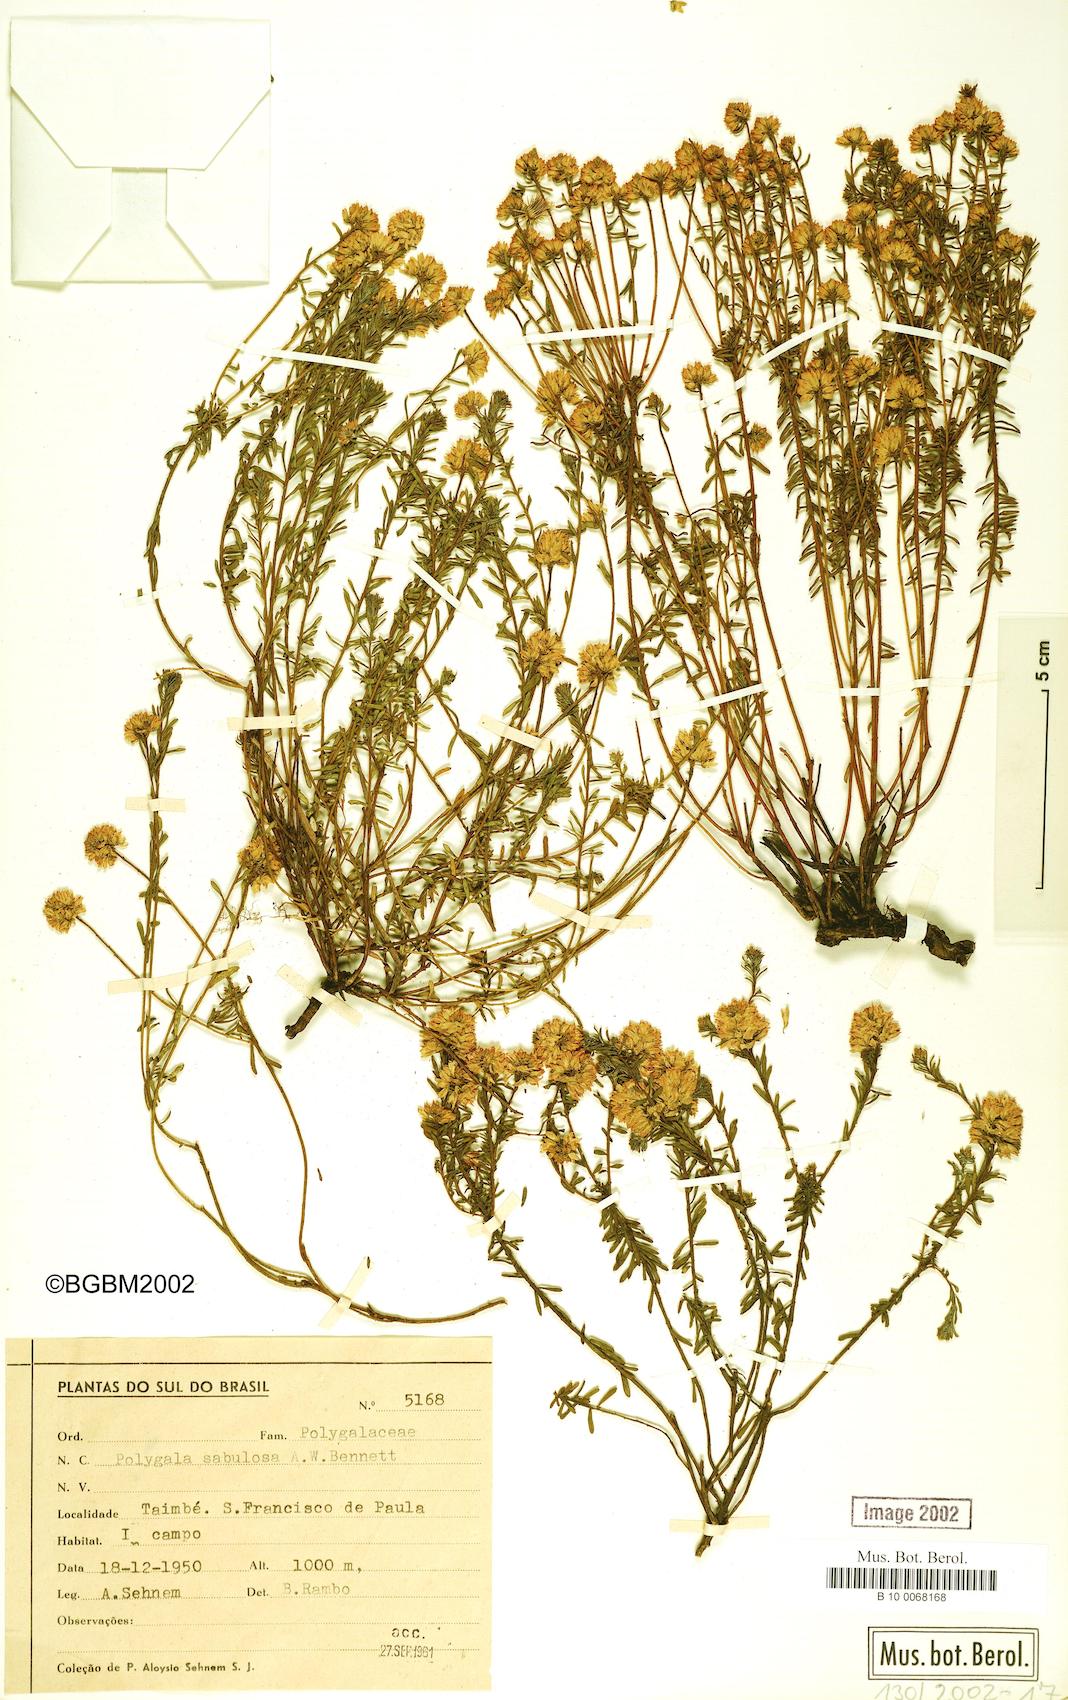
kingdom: Plantae
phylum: Tracheophyta
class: Magnoliopsida
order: Fabales
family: Polygalaceae
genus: Polygala
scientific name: Polygala sellowiana
